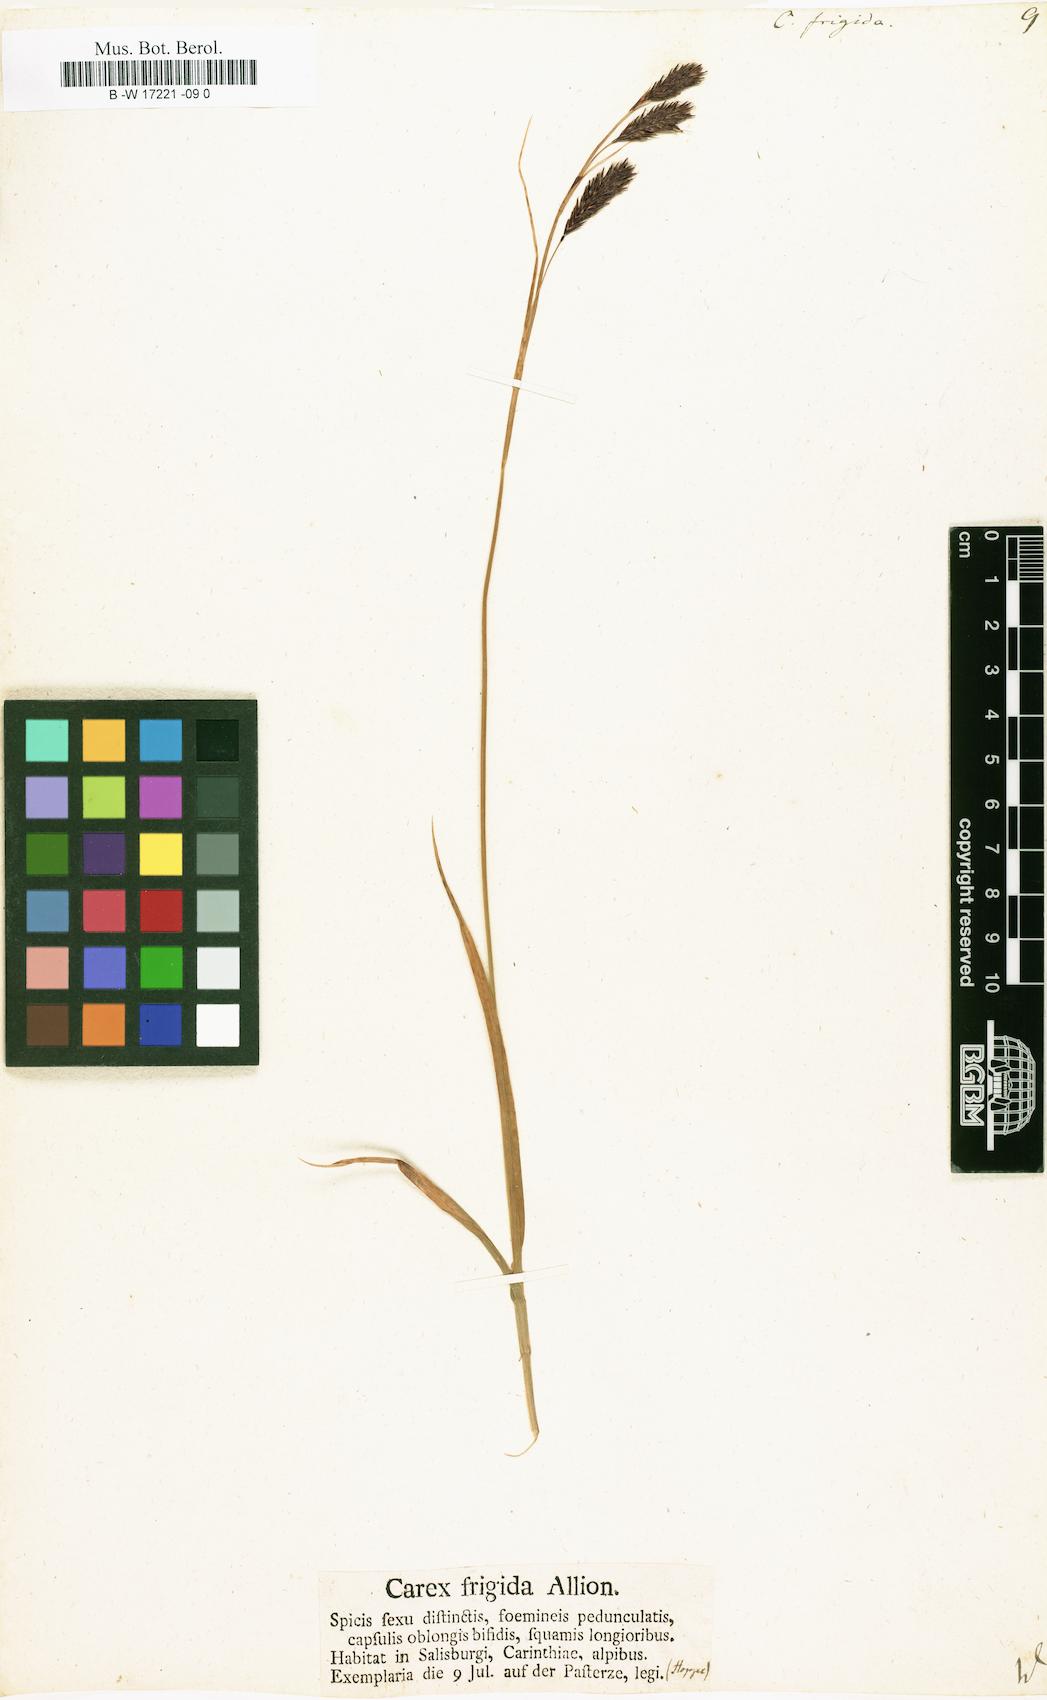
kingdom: Plantae
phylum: Tracheophyta
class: Liliopsida
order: Poales
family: Cyperaceae
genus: Carex
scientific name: Carex frigida
